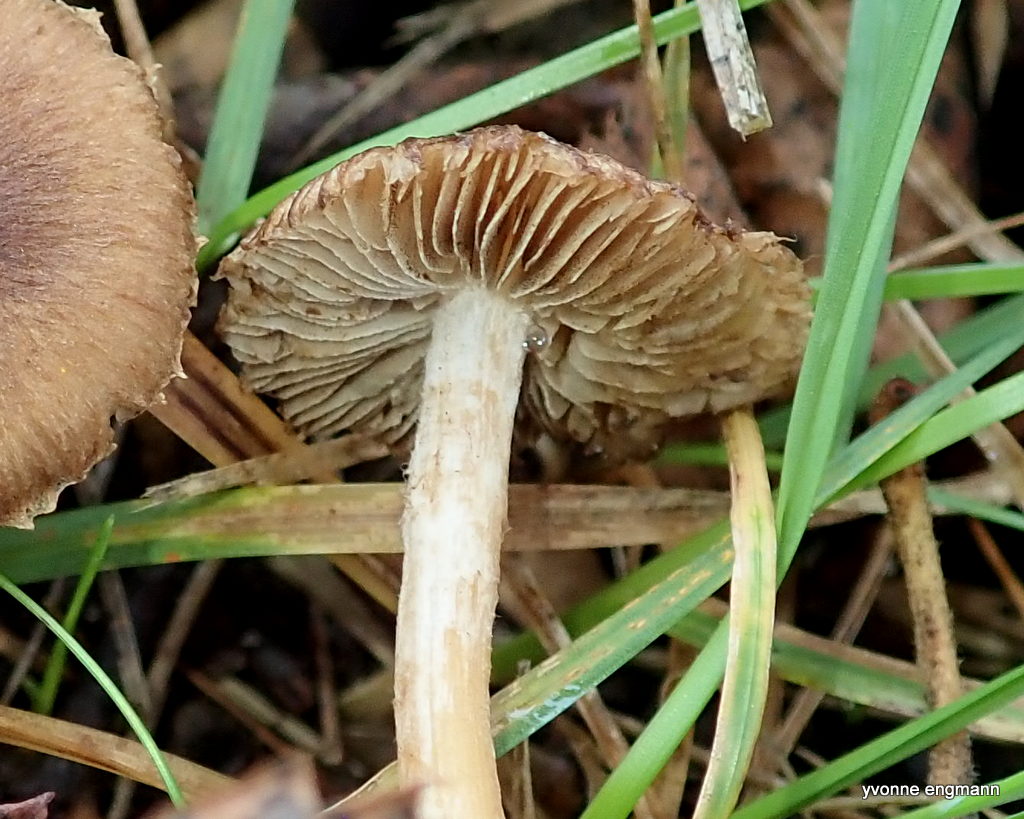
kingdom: Fungi
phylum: Basidiomycota
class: Agaricomycetes
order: Agaricales
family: Inocybaceae
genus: Inocybe
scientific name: Inocybe
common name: trævlhat
